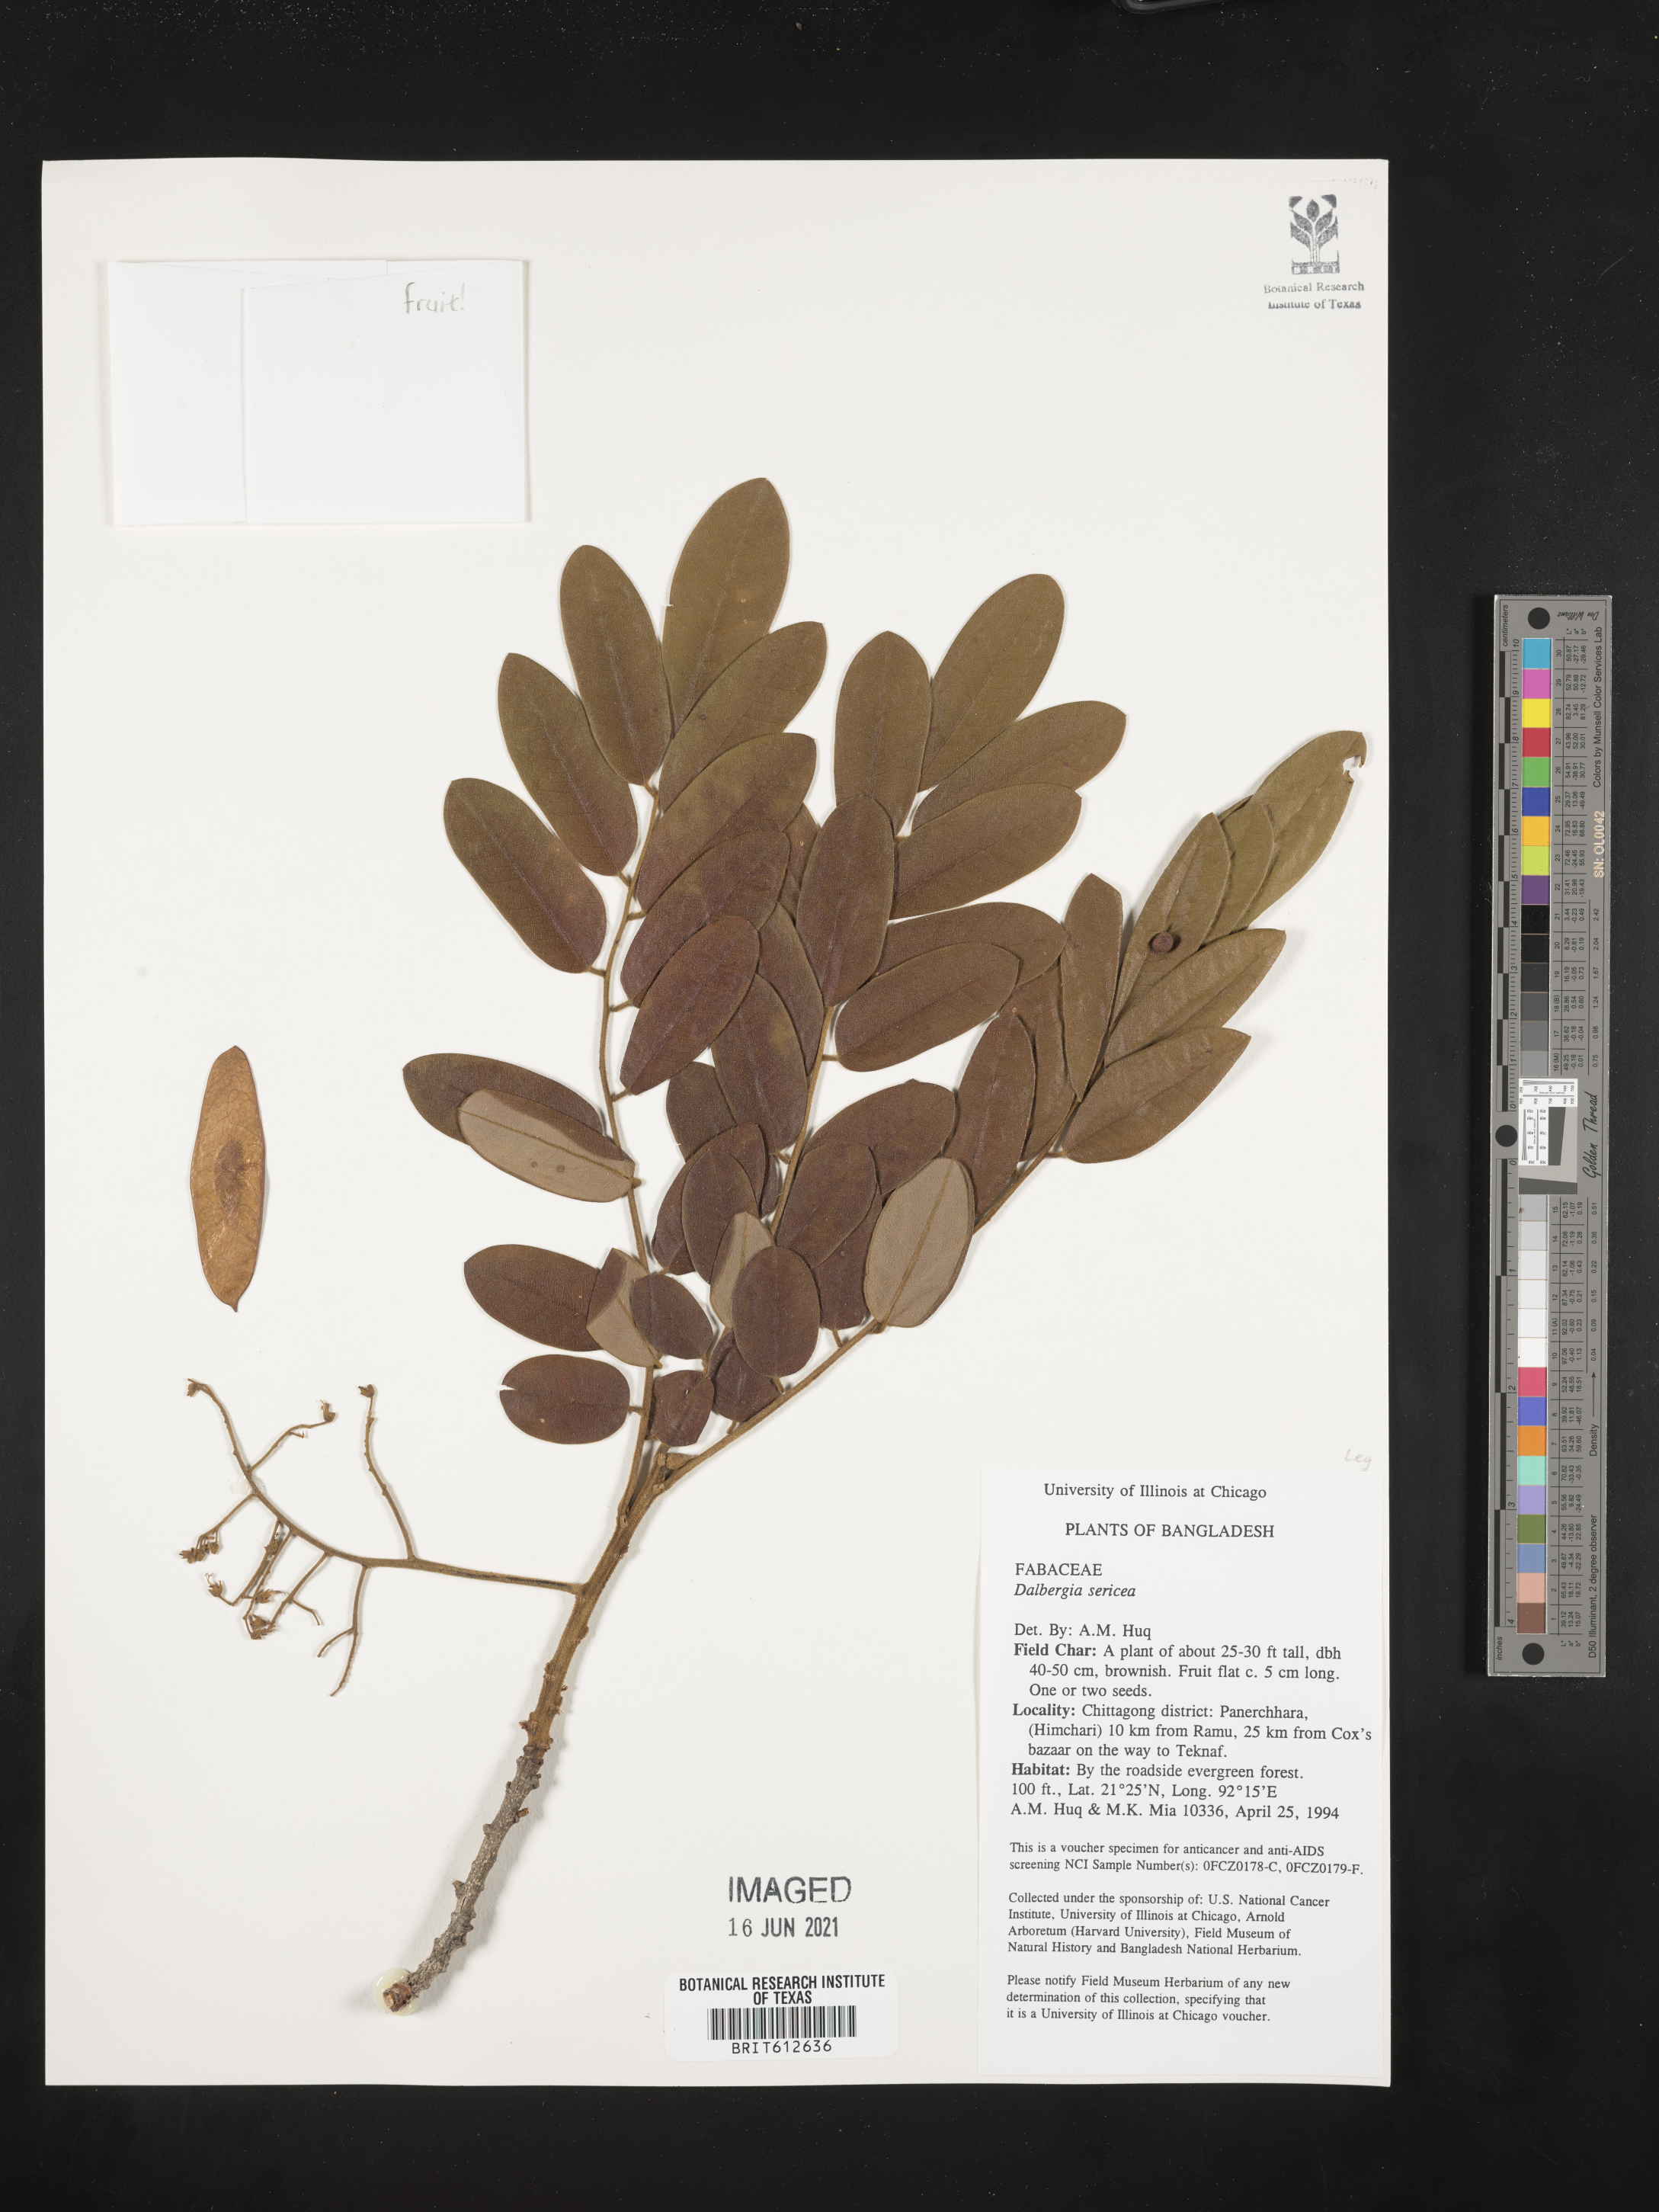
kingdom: Plantae
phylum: Tracheophyta
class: Magnoliopsida
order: Fabales
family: Fabaceae
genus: Mundulea
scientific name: Mundulea sericea
